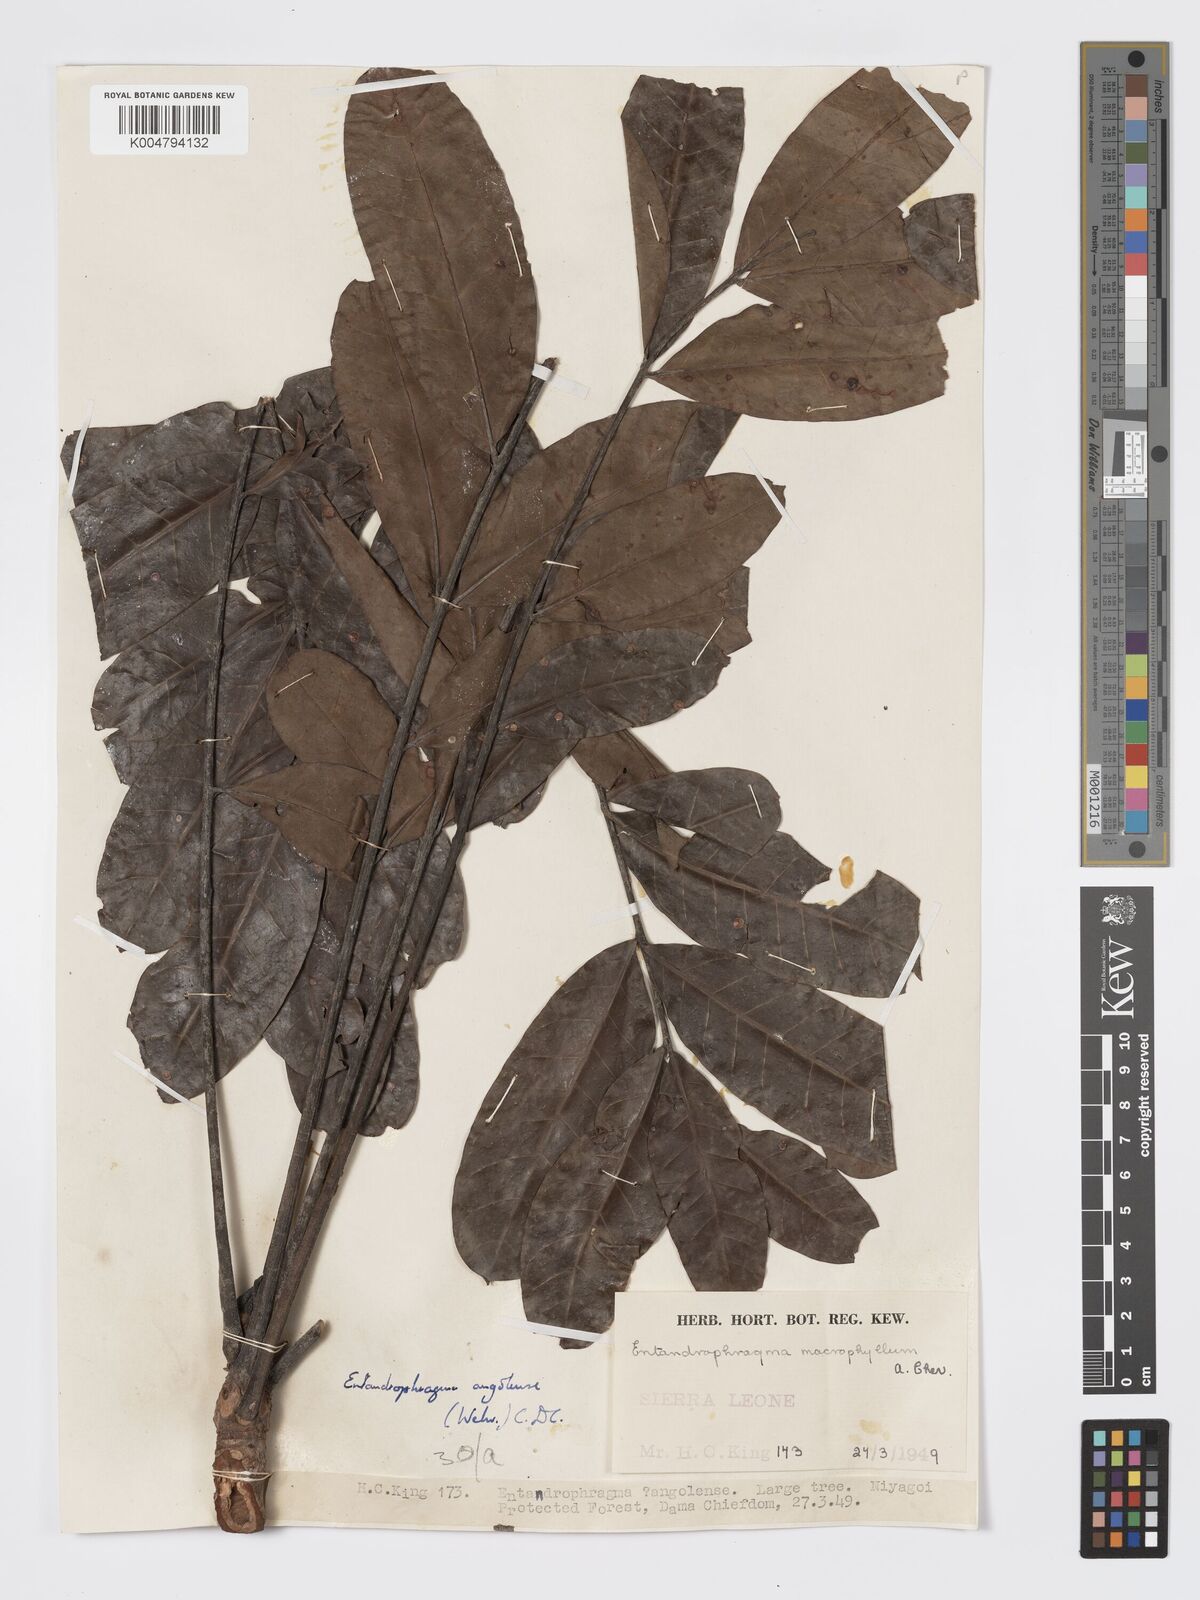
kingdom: Plantae
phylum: Tracheophyta
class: Magnoliopsida
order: Sapindales
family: Meliaceae
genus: Entandrophragma
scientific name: Entandrophragma angolense
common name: African mahogany
